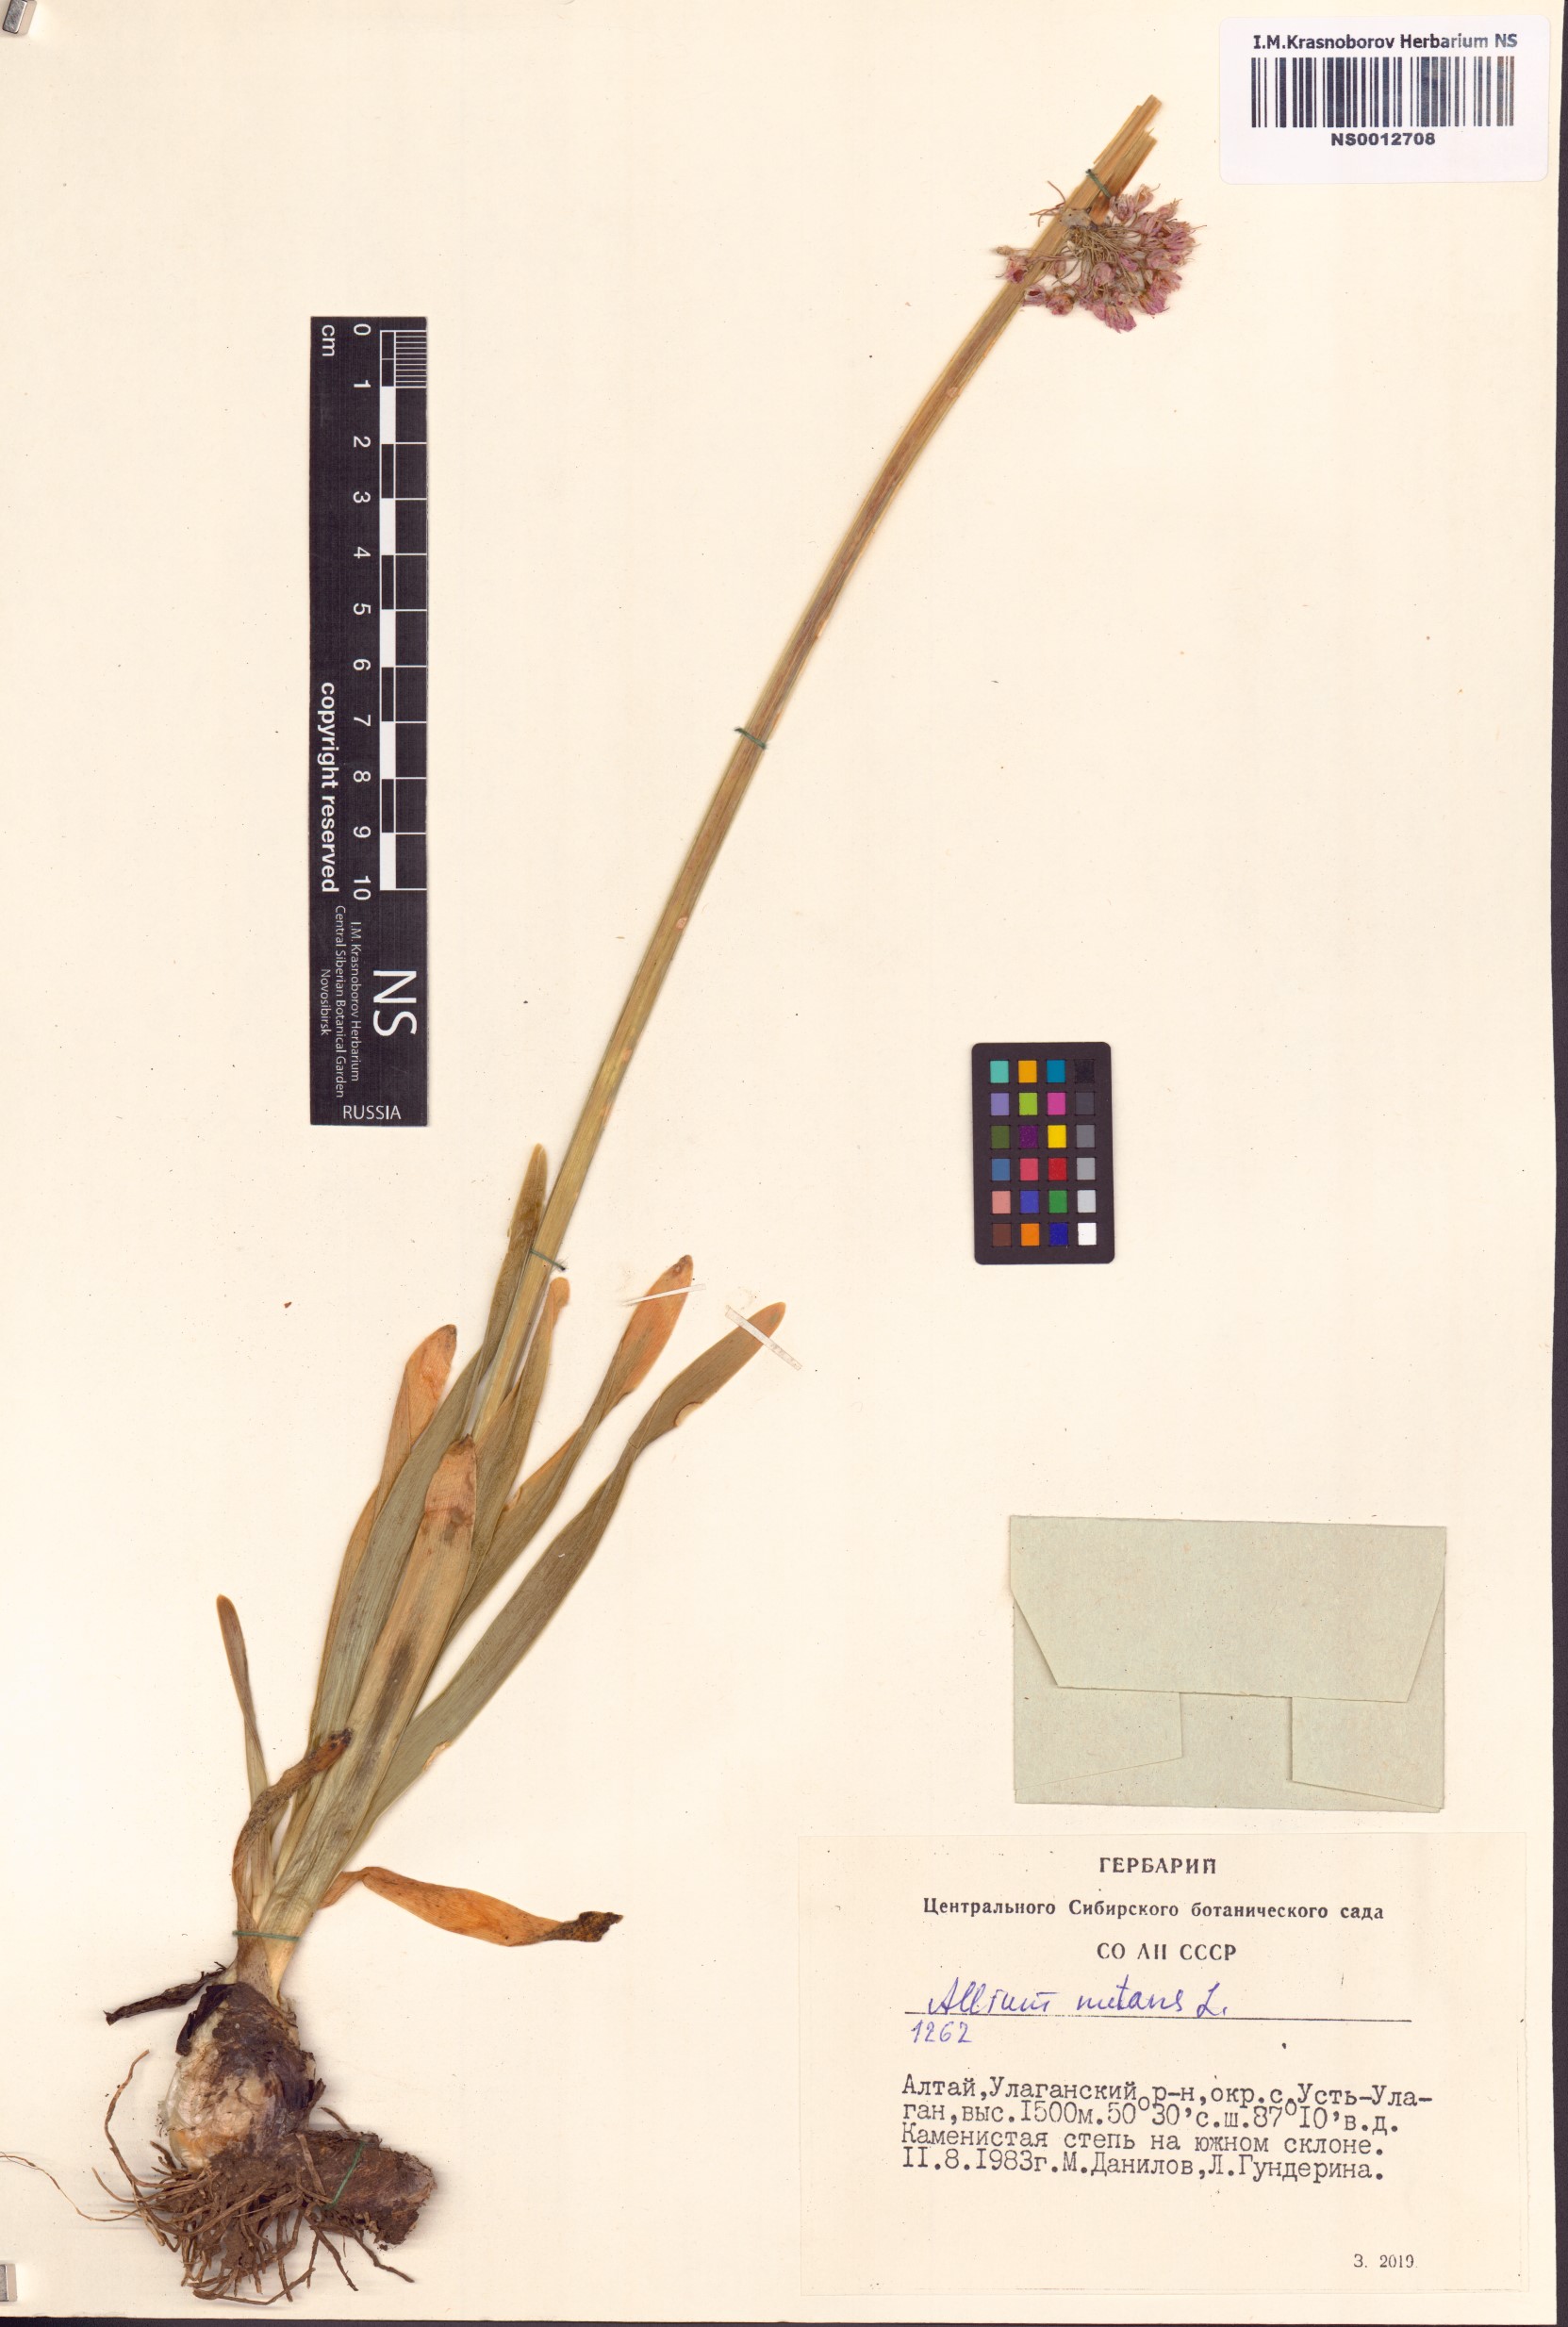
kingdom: Plantae
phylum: Tracheophyta
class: Liliopsida
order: Asparagales
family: Amaryllidaceae
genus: Allium
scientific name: Allium nutans
